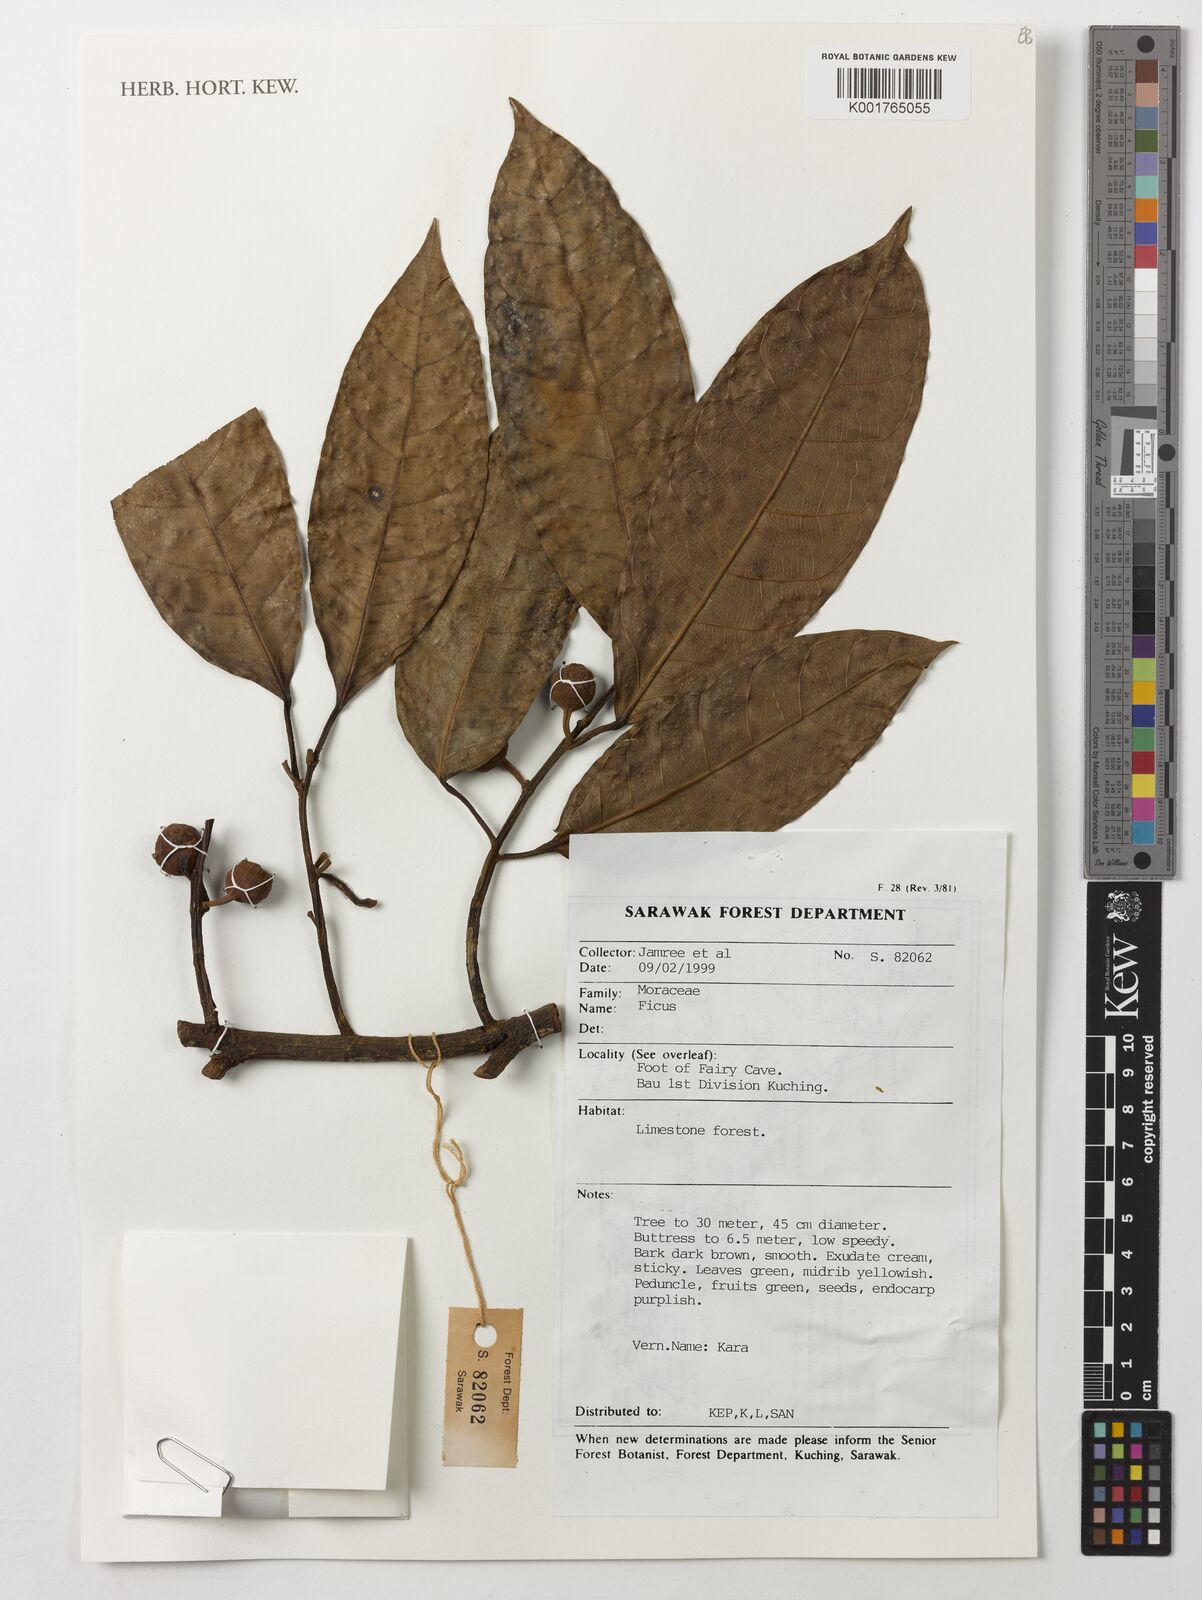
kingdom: Plantae
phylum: Tracheophyta
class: Magnoliopsida
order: Rosales
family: Moraceae
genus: Ficus
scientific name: Ficus
